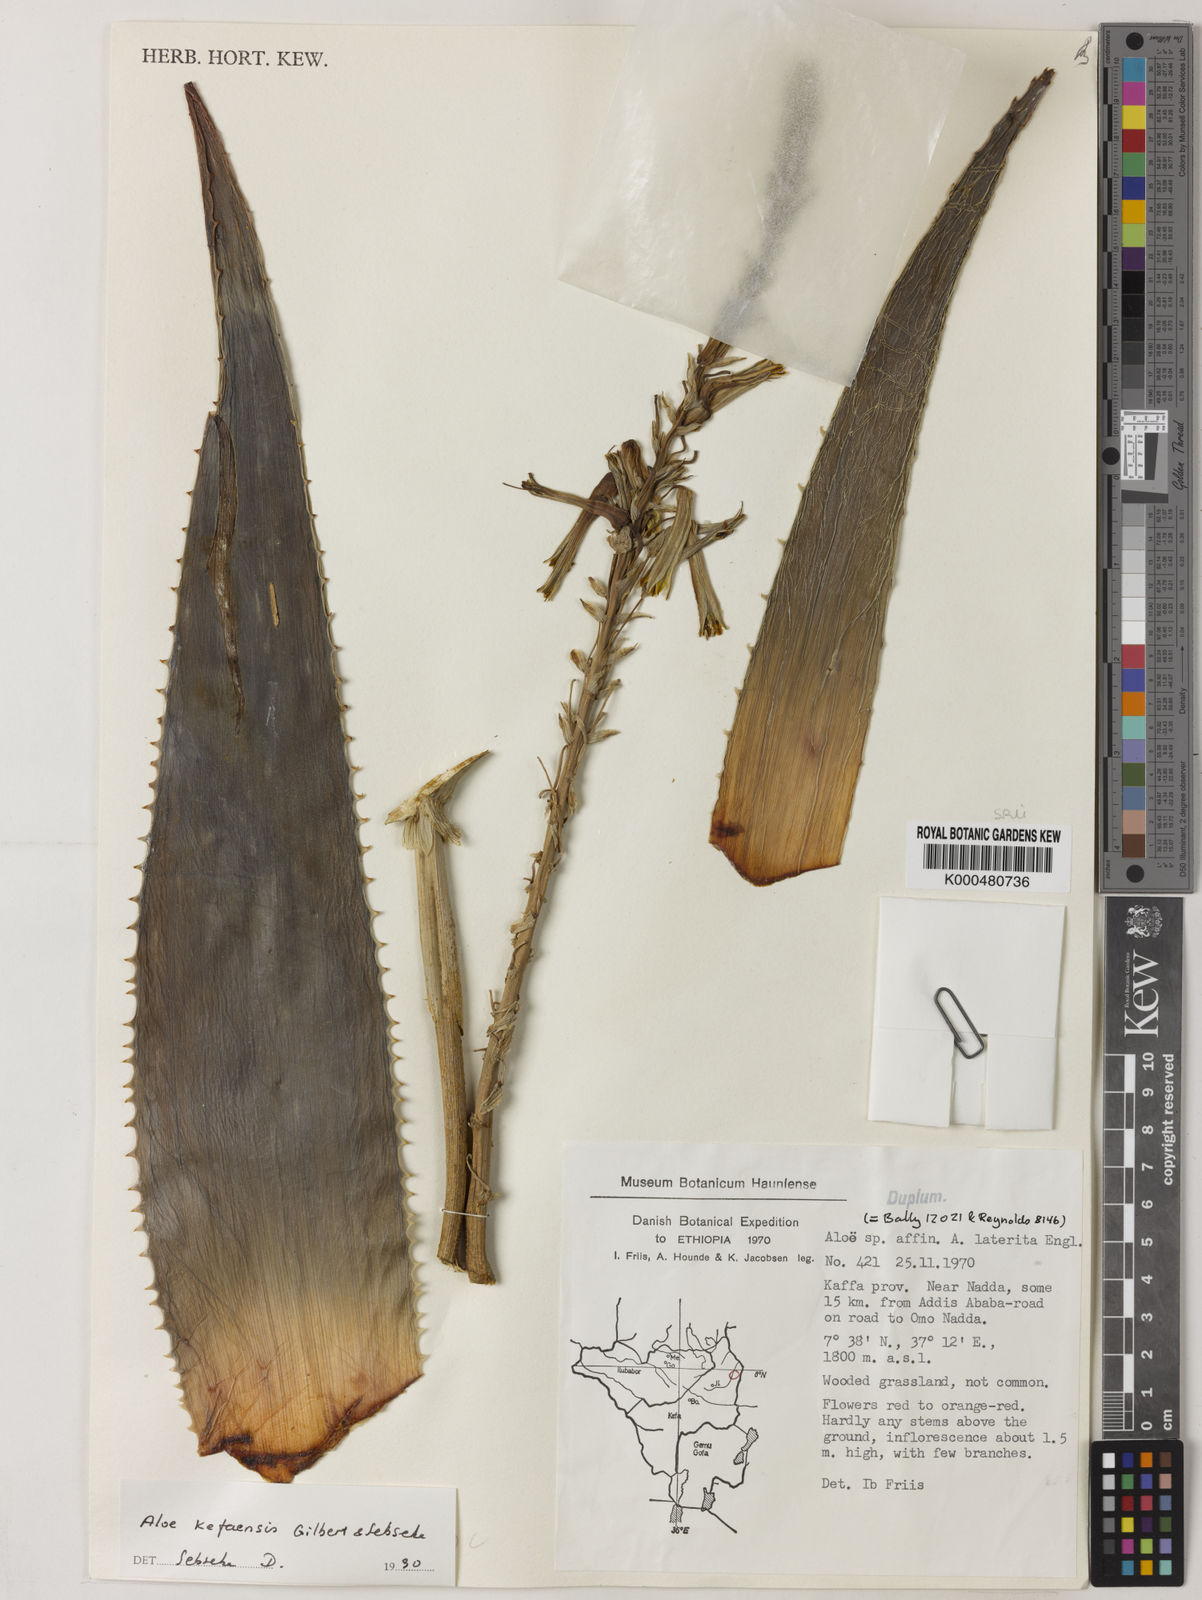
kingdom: Plantae
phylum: Tracheophyta
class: Liliopsida
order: Asparagales
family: Asphodelaceae
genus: Aloe
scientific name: Aloe kefaensis
